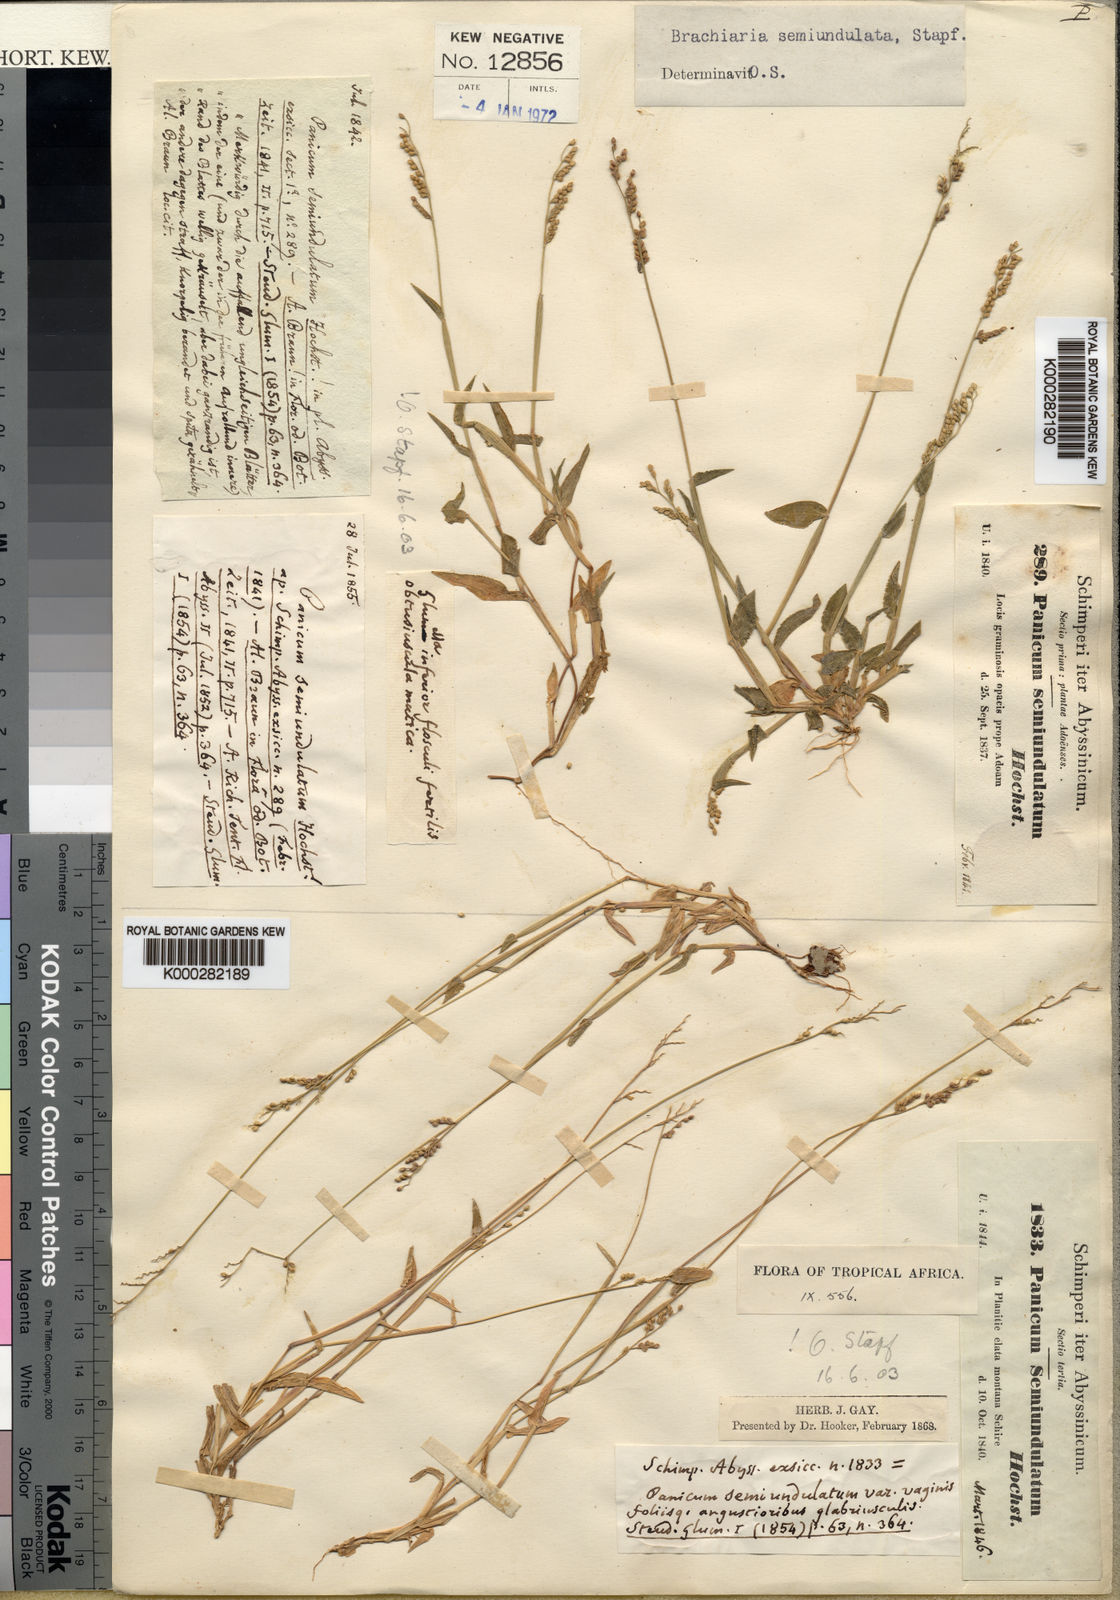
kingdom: Plantae
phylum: Tracheophyta
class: Liliopsida
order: Poales
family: Poaceae
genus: Urochloa
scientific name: Urochloa semiundulata
